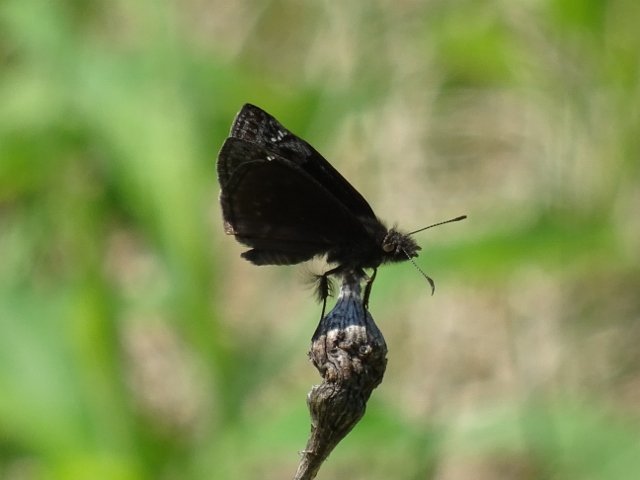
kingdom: Animalia
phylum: Arthropoda
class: Insecta
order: Lepidoptera
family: Hesperiidae
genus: Gesta
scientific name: Gesta
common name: Wild Indigo Duskywing
